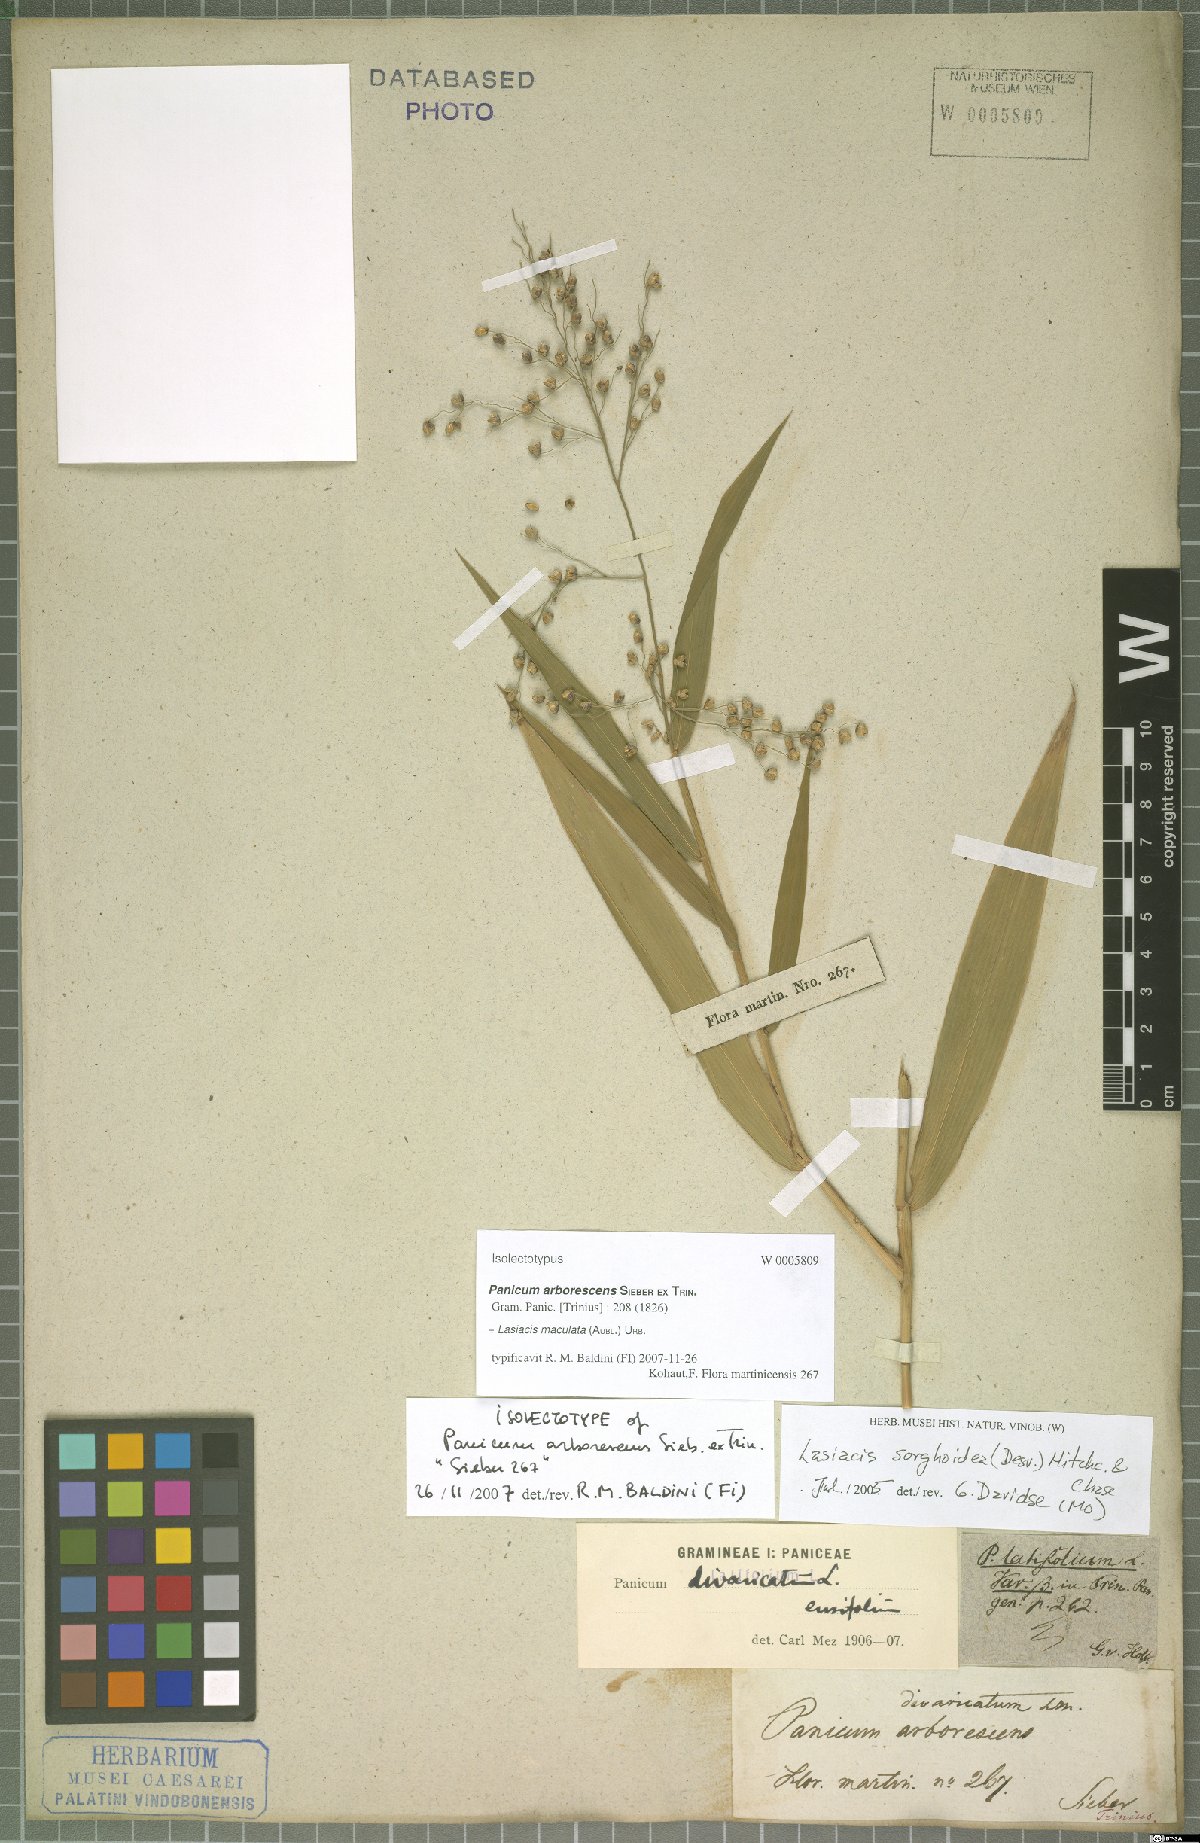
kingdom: Plantae
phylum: Tracheophyta
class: Liliopsida
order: Poales
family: Poaceae
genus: Lasiacis
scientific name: Lasiacis maculata
